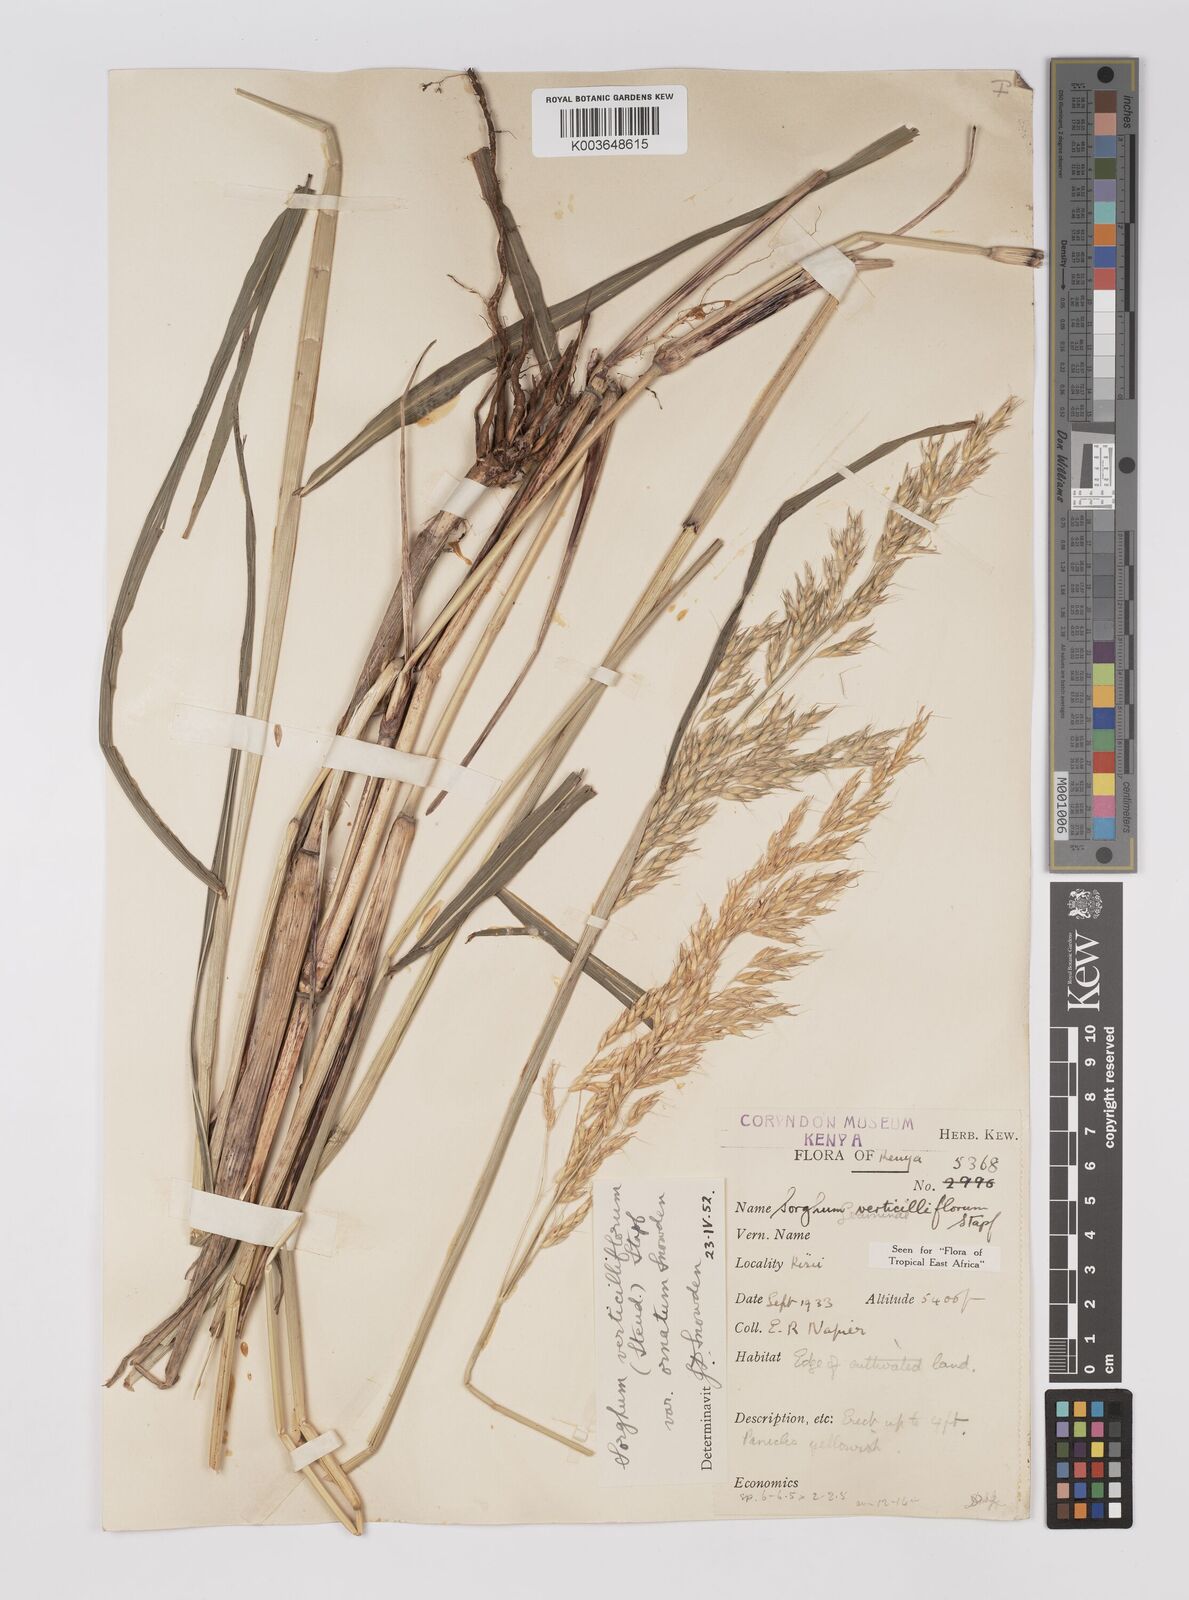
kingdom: Plantae
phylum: Tracheophyta
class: Liliopsida
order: Poales
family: Poaceae
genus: Sorghum
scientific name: Sorghum arundinaceum
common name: Sorghum
